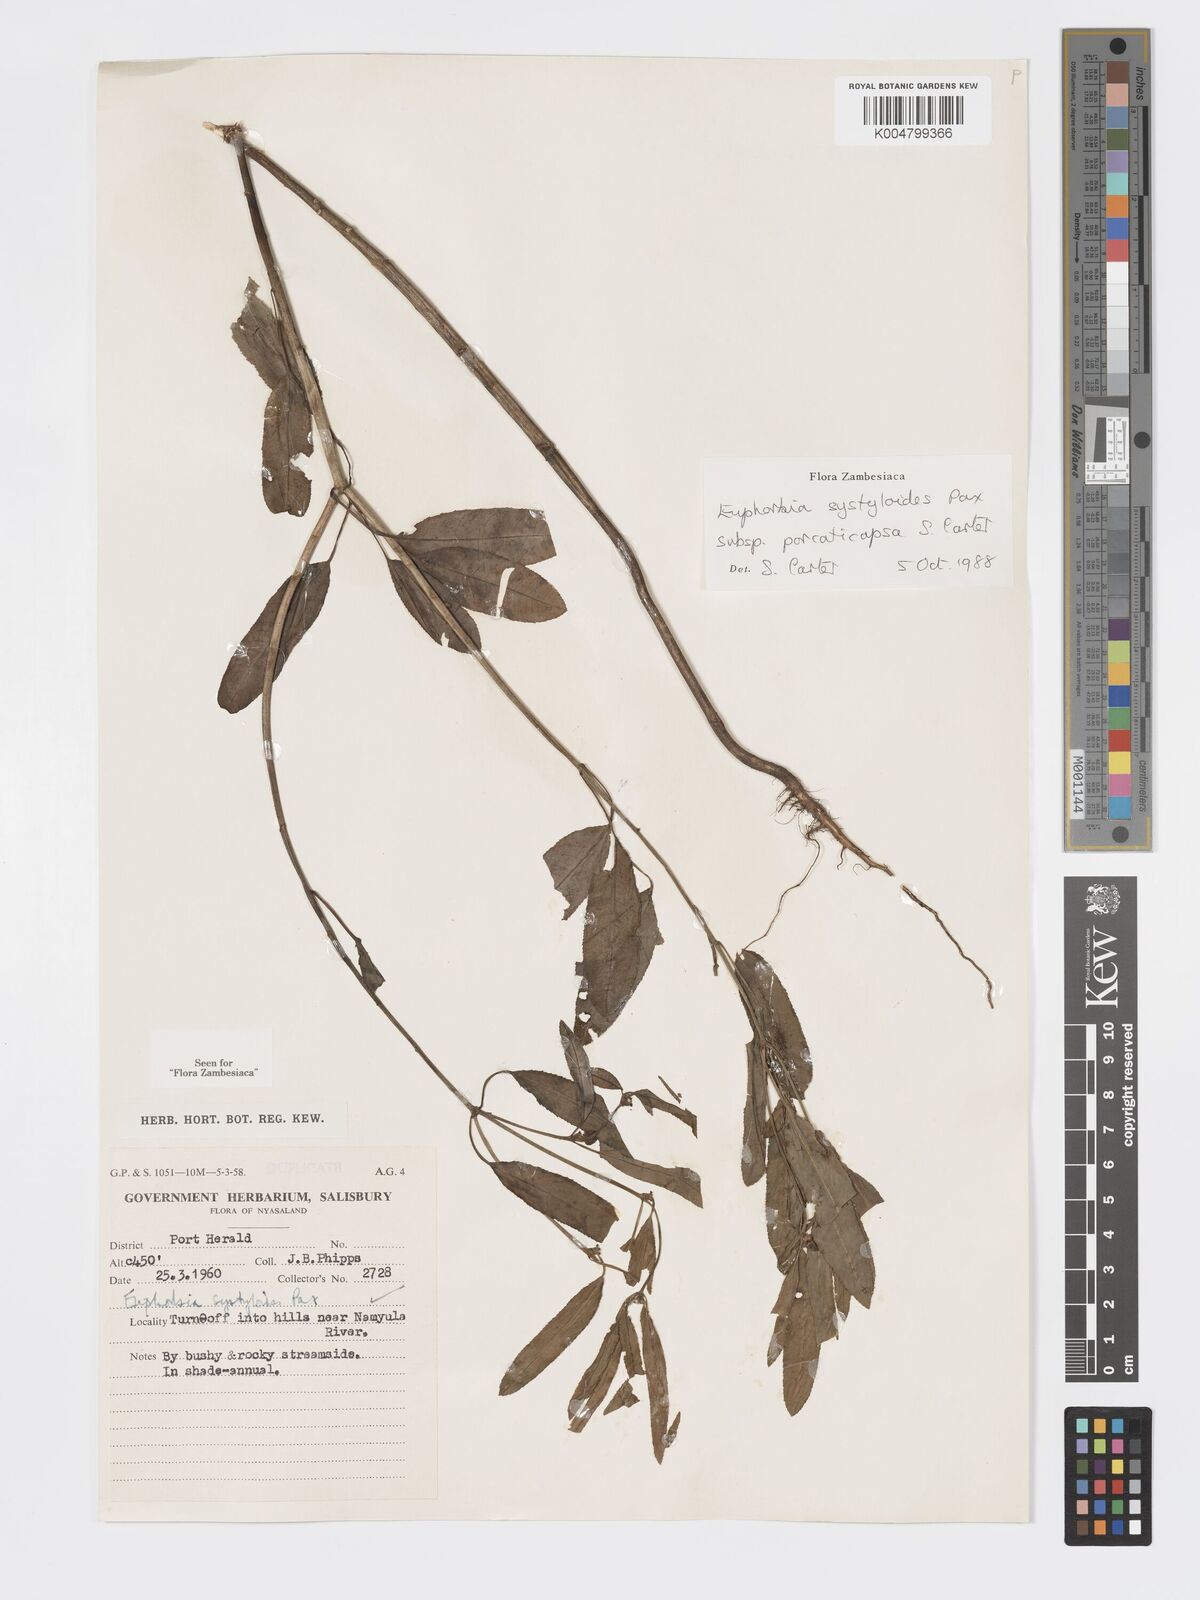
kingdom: Plantae
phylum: Tracheophyta
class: Magnoliopsida
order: Malpighiales
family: Euphorbiaceae
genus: Euphorbia
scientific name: Euphorbia systyloides
